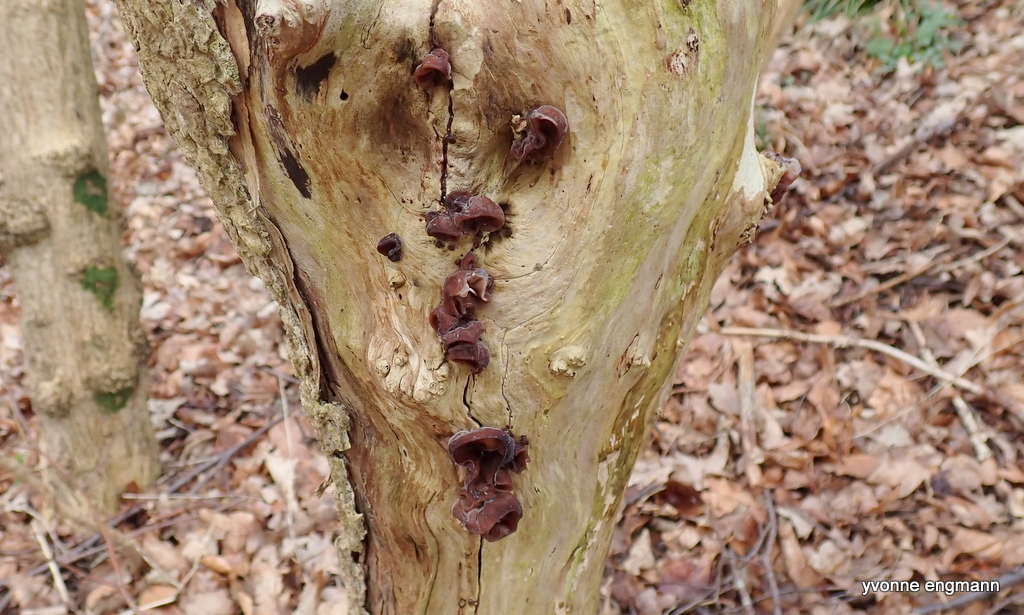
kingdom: Fungi
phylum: Basidiomycota
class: Agaricomycetes
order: Auriculariales
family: Auriculariaceae
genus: Auricularia
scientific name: Auricularia auricula-judae
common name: almindelig judasøre
